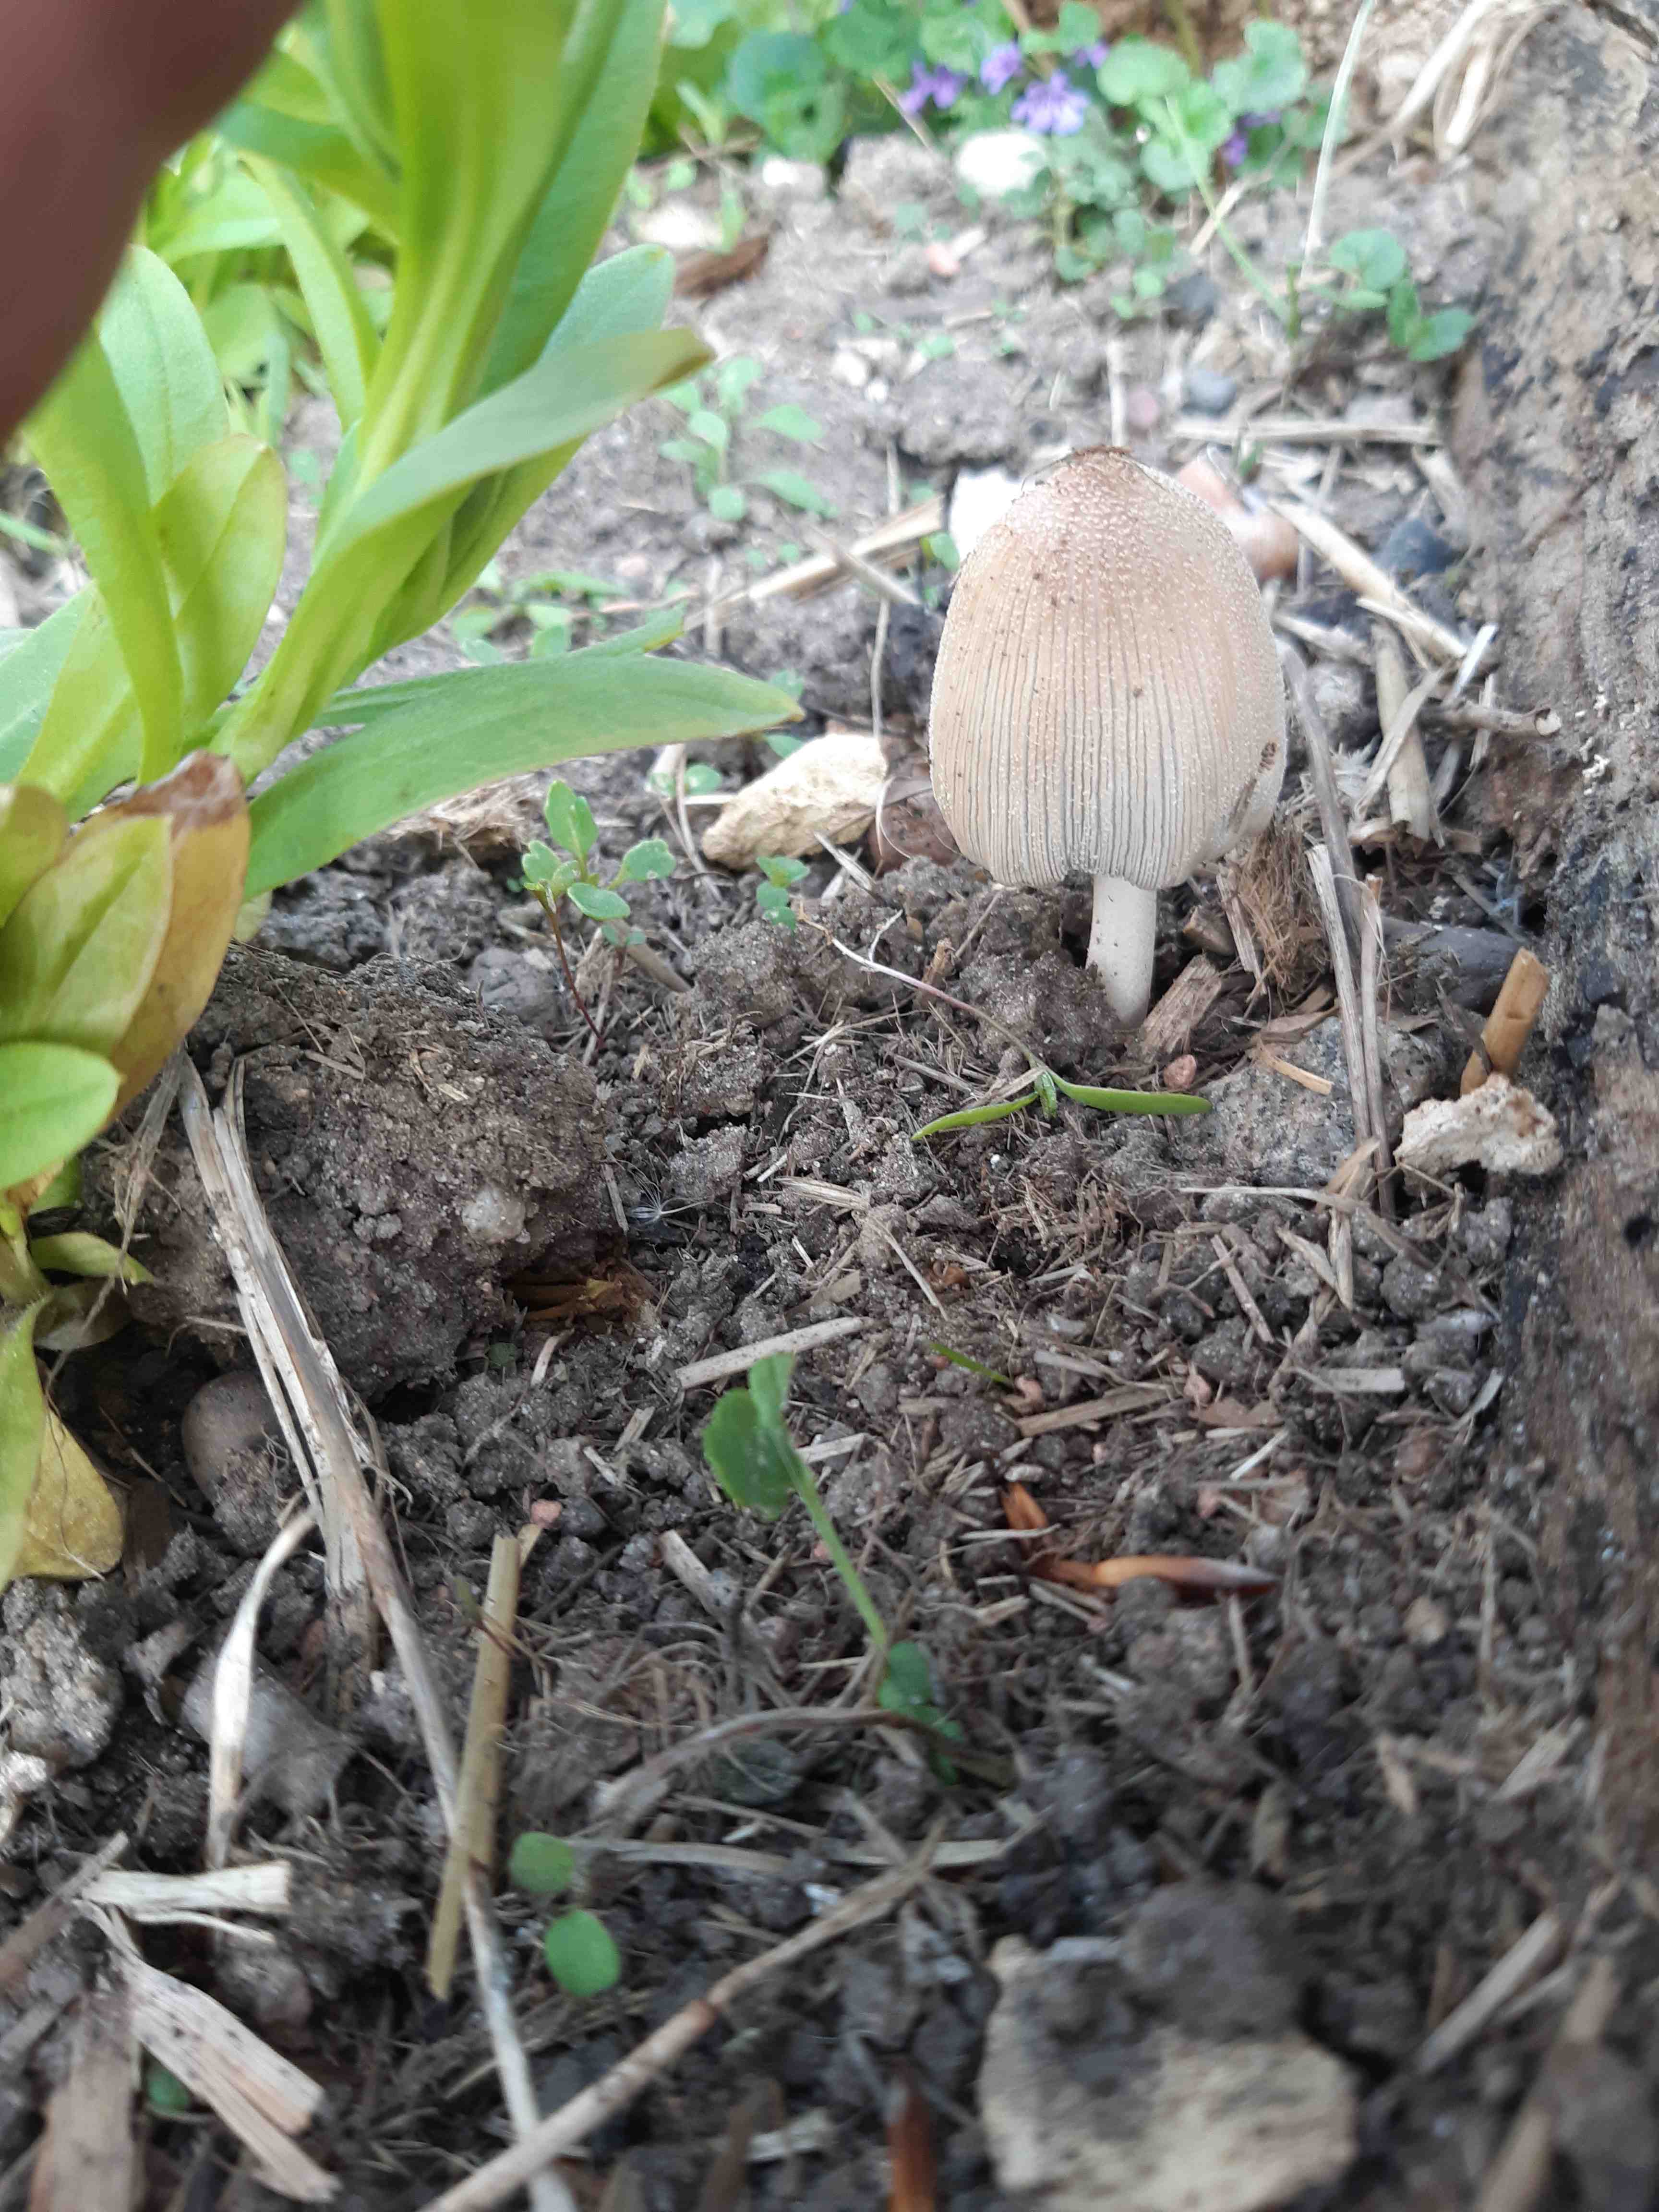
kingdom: Fungi
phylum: Basidiomycota
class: Agaricomycetes
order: Agaricales
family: Psathyrellaceae
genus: Coprinellus
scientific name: Coprinellus
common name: blækhat
